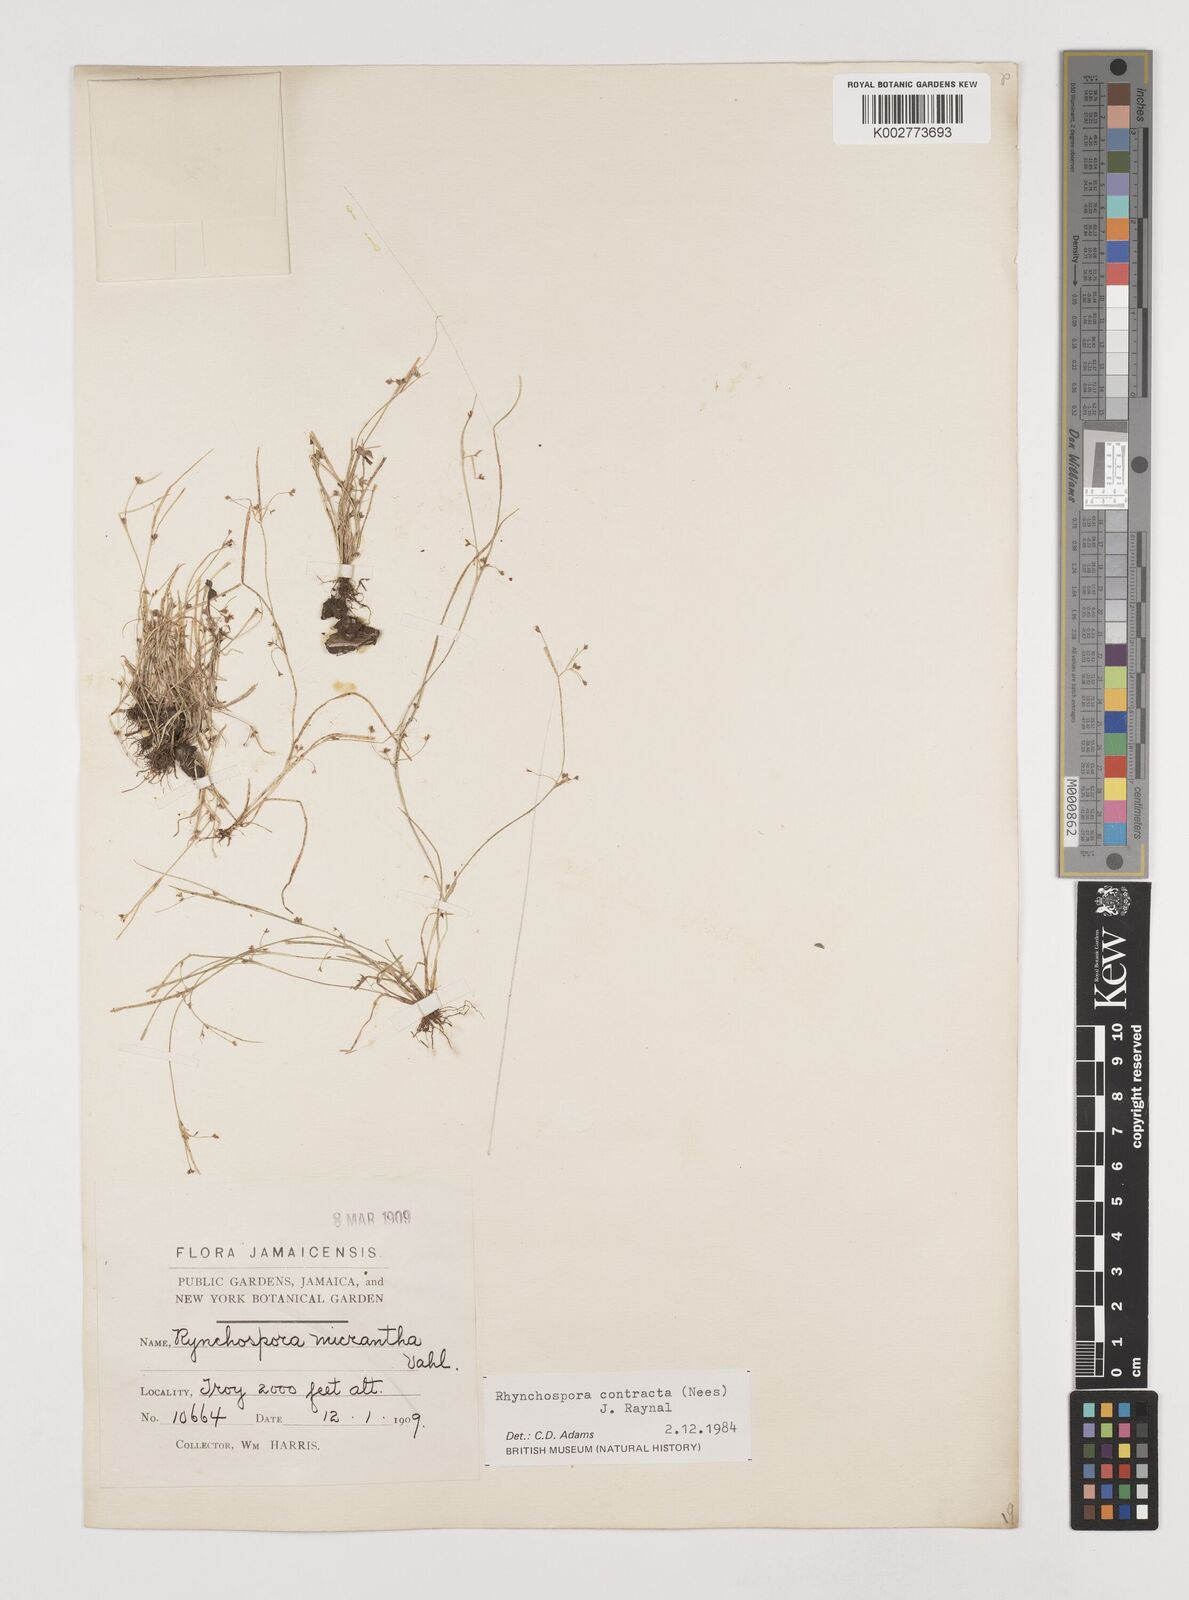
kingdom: Plantae
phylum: Tracheophyta
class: Liliopsida
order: Poales
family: Cyperaceae
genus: Rhynchospora
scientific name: Rhynchospora contracta
